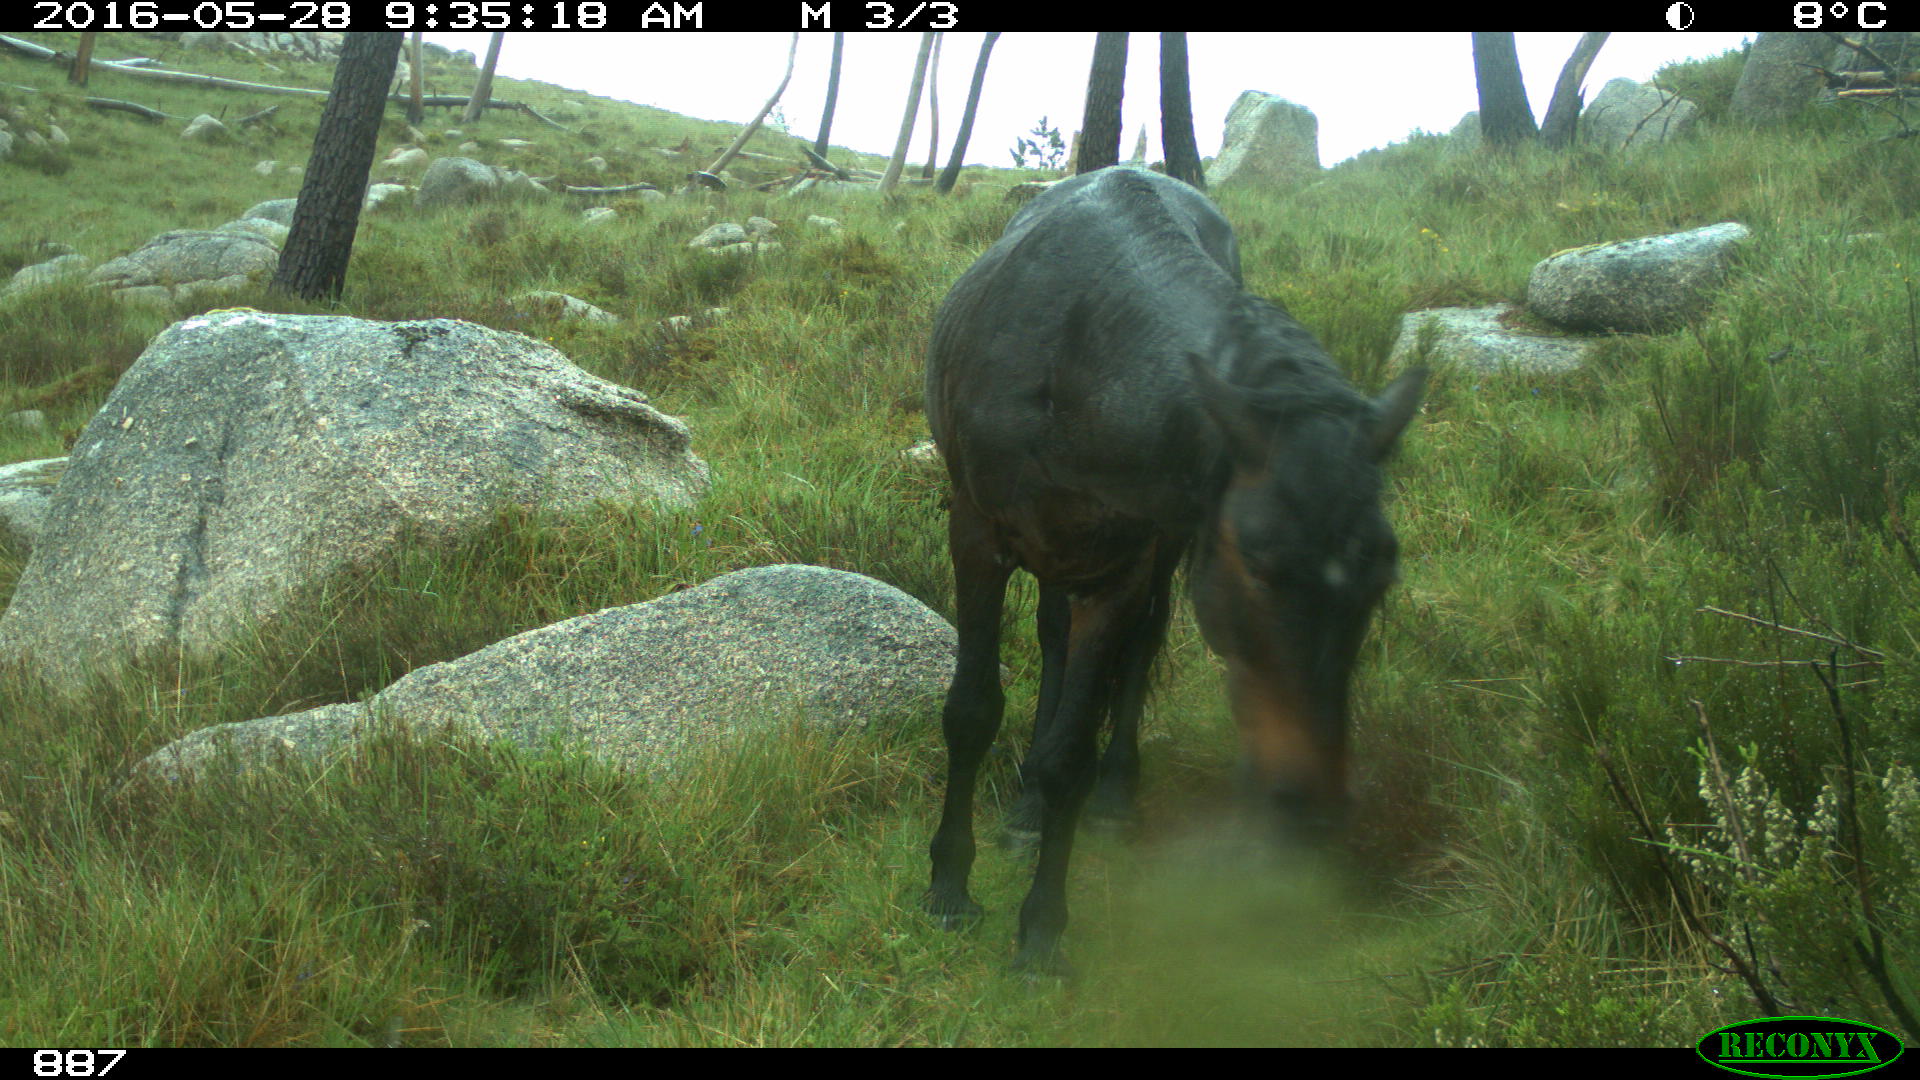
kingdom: Animalia
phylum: Chordata
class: Mammalia
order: Perissodactyla
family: Equidae
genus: Equus
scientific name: Equus caballus
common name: Horse
